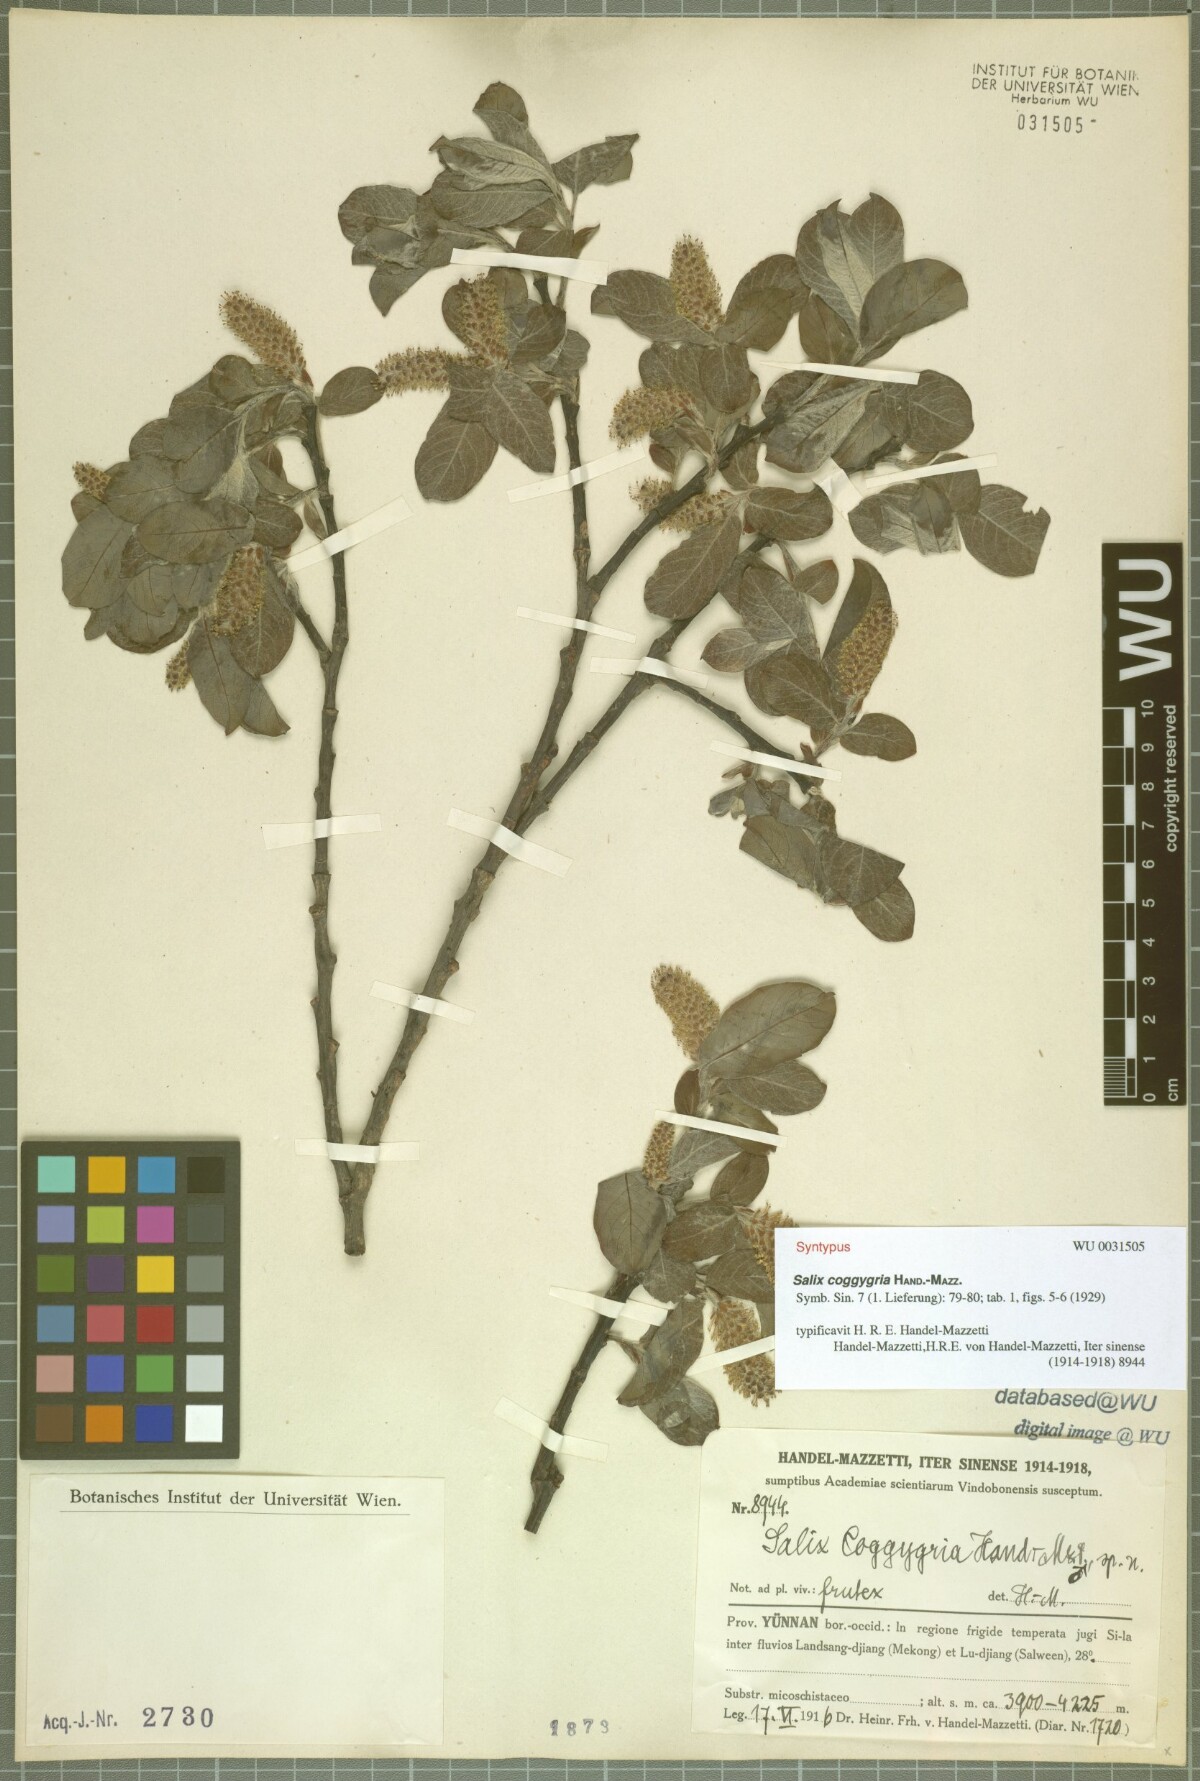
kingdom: Plantae
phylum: Tracheophyta
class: Magnoliopsida
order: Malpighiales
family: Salicaceae
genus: Salix
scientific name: Salix coggygria
